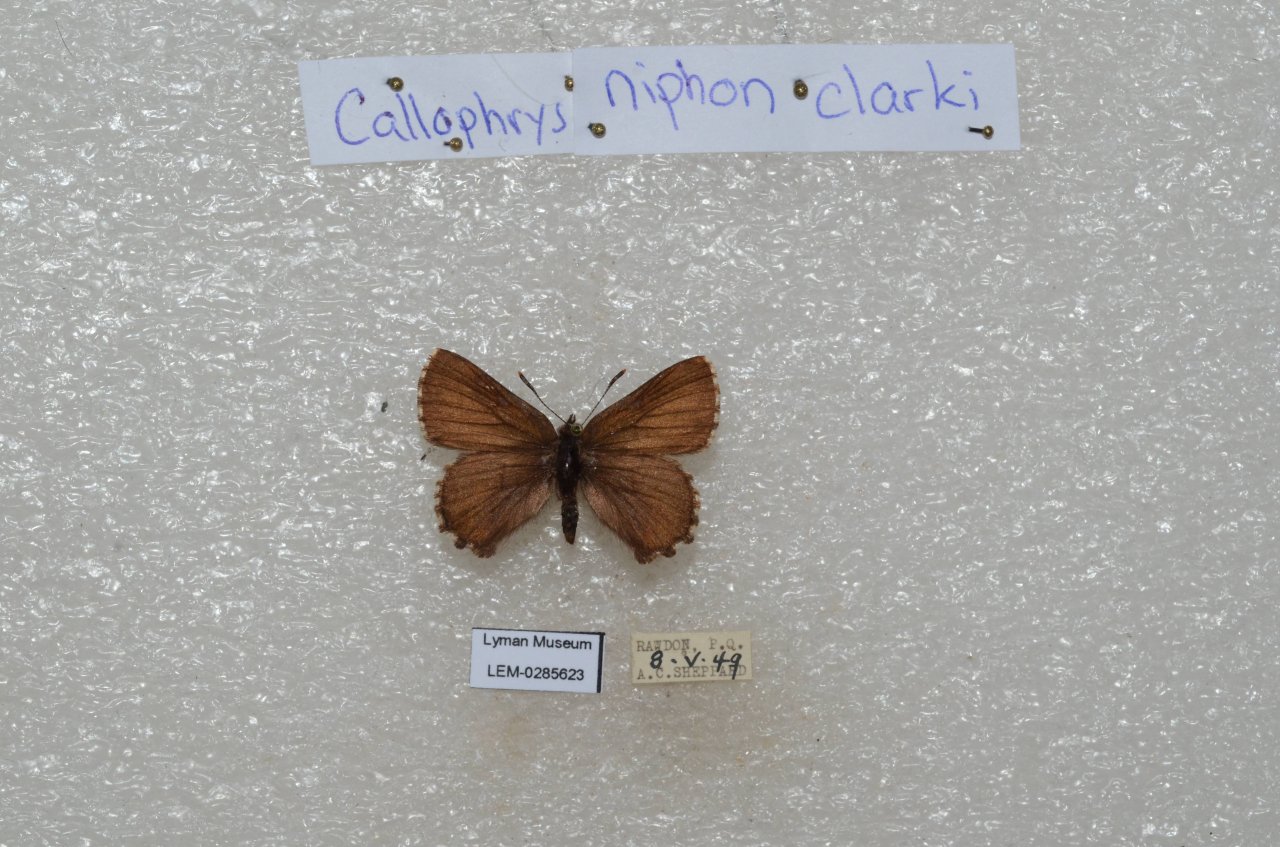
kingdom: Animalia
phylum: Arthropoda
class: Insecta
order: Lepidoptera
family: Lycaenidae
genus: Incisalia
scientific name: Incisalia niphon
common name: Eastern Pine Elfin
